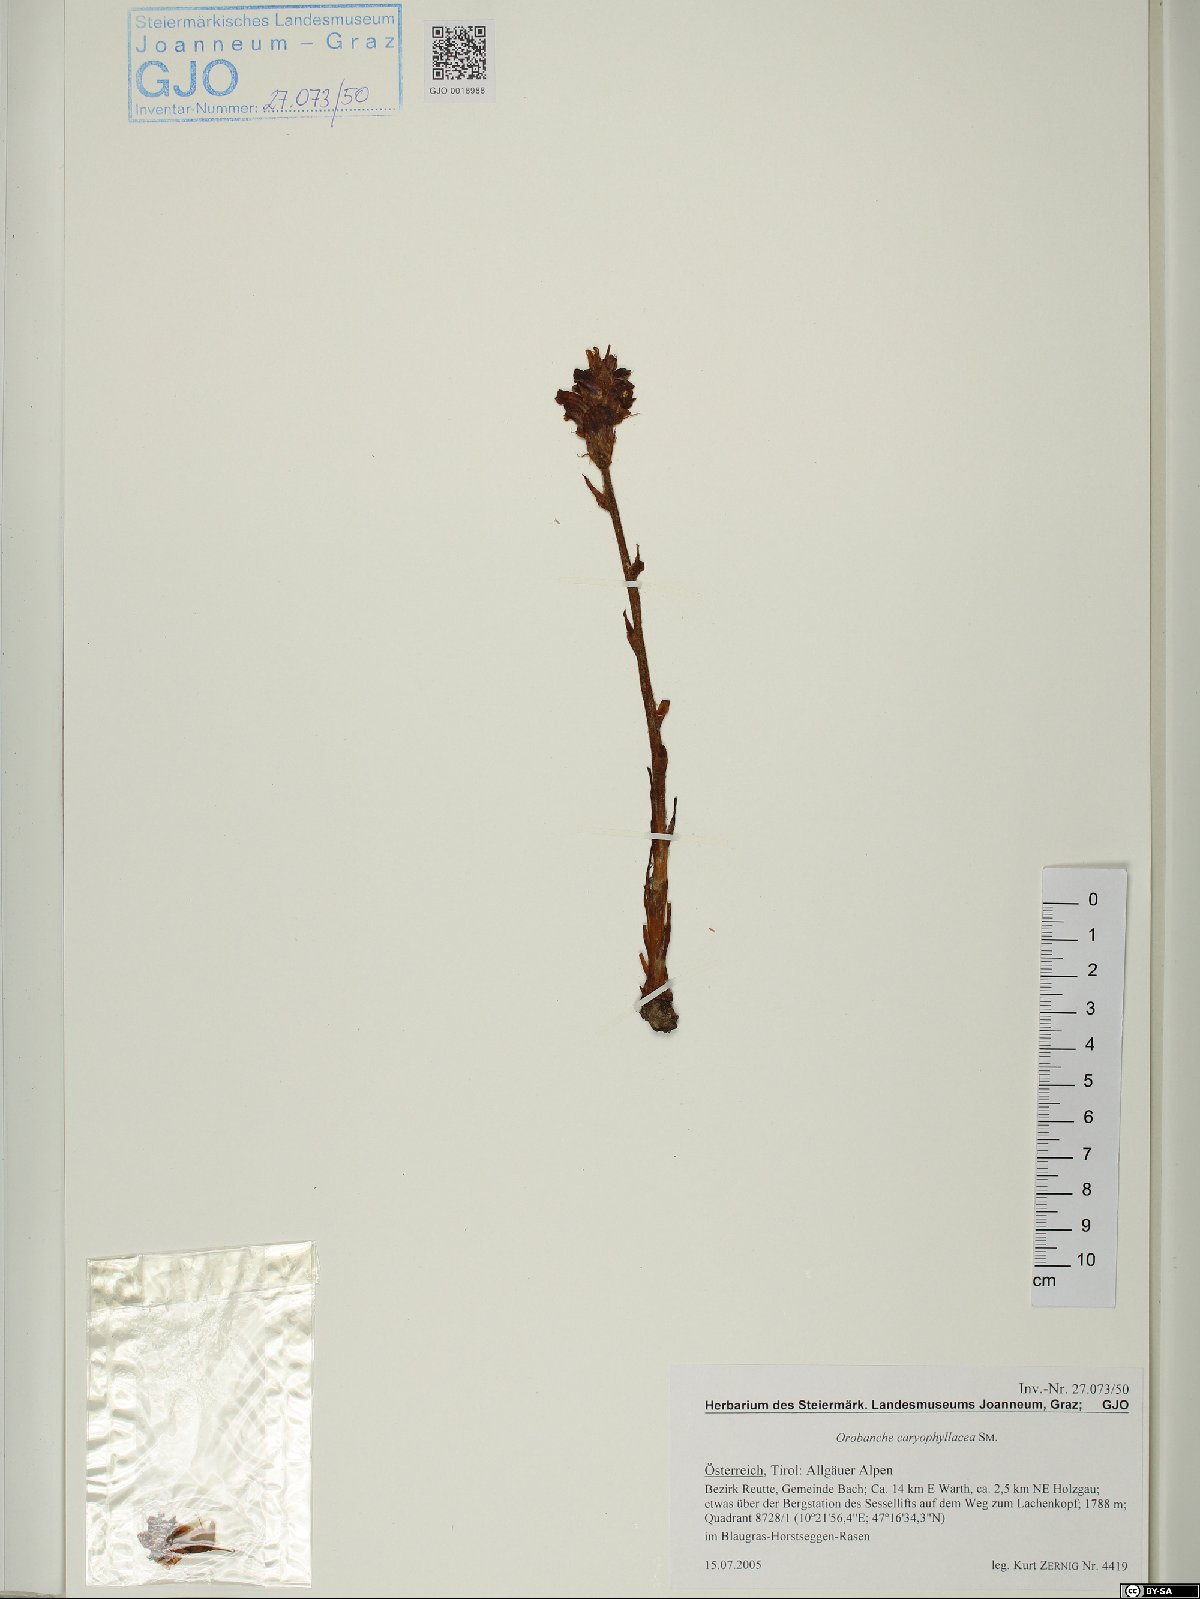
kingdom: Plantae
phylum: Tracheophyta
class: Magnoliopsida
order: Lamiales
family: Orobanchaceae
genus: Orobanche
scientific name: Orobanche caryophyllacea
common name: Bedstraw broomrape
